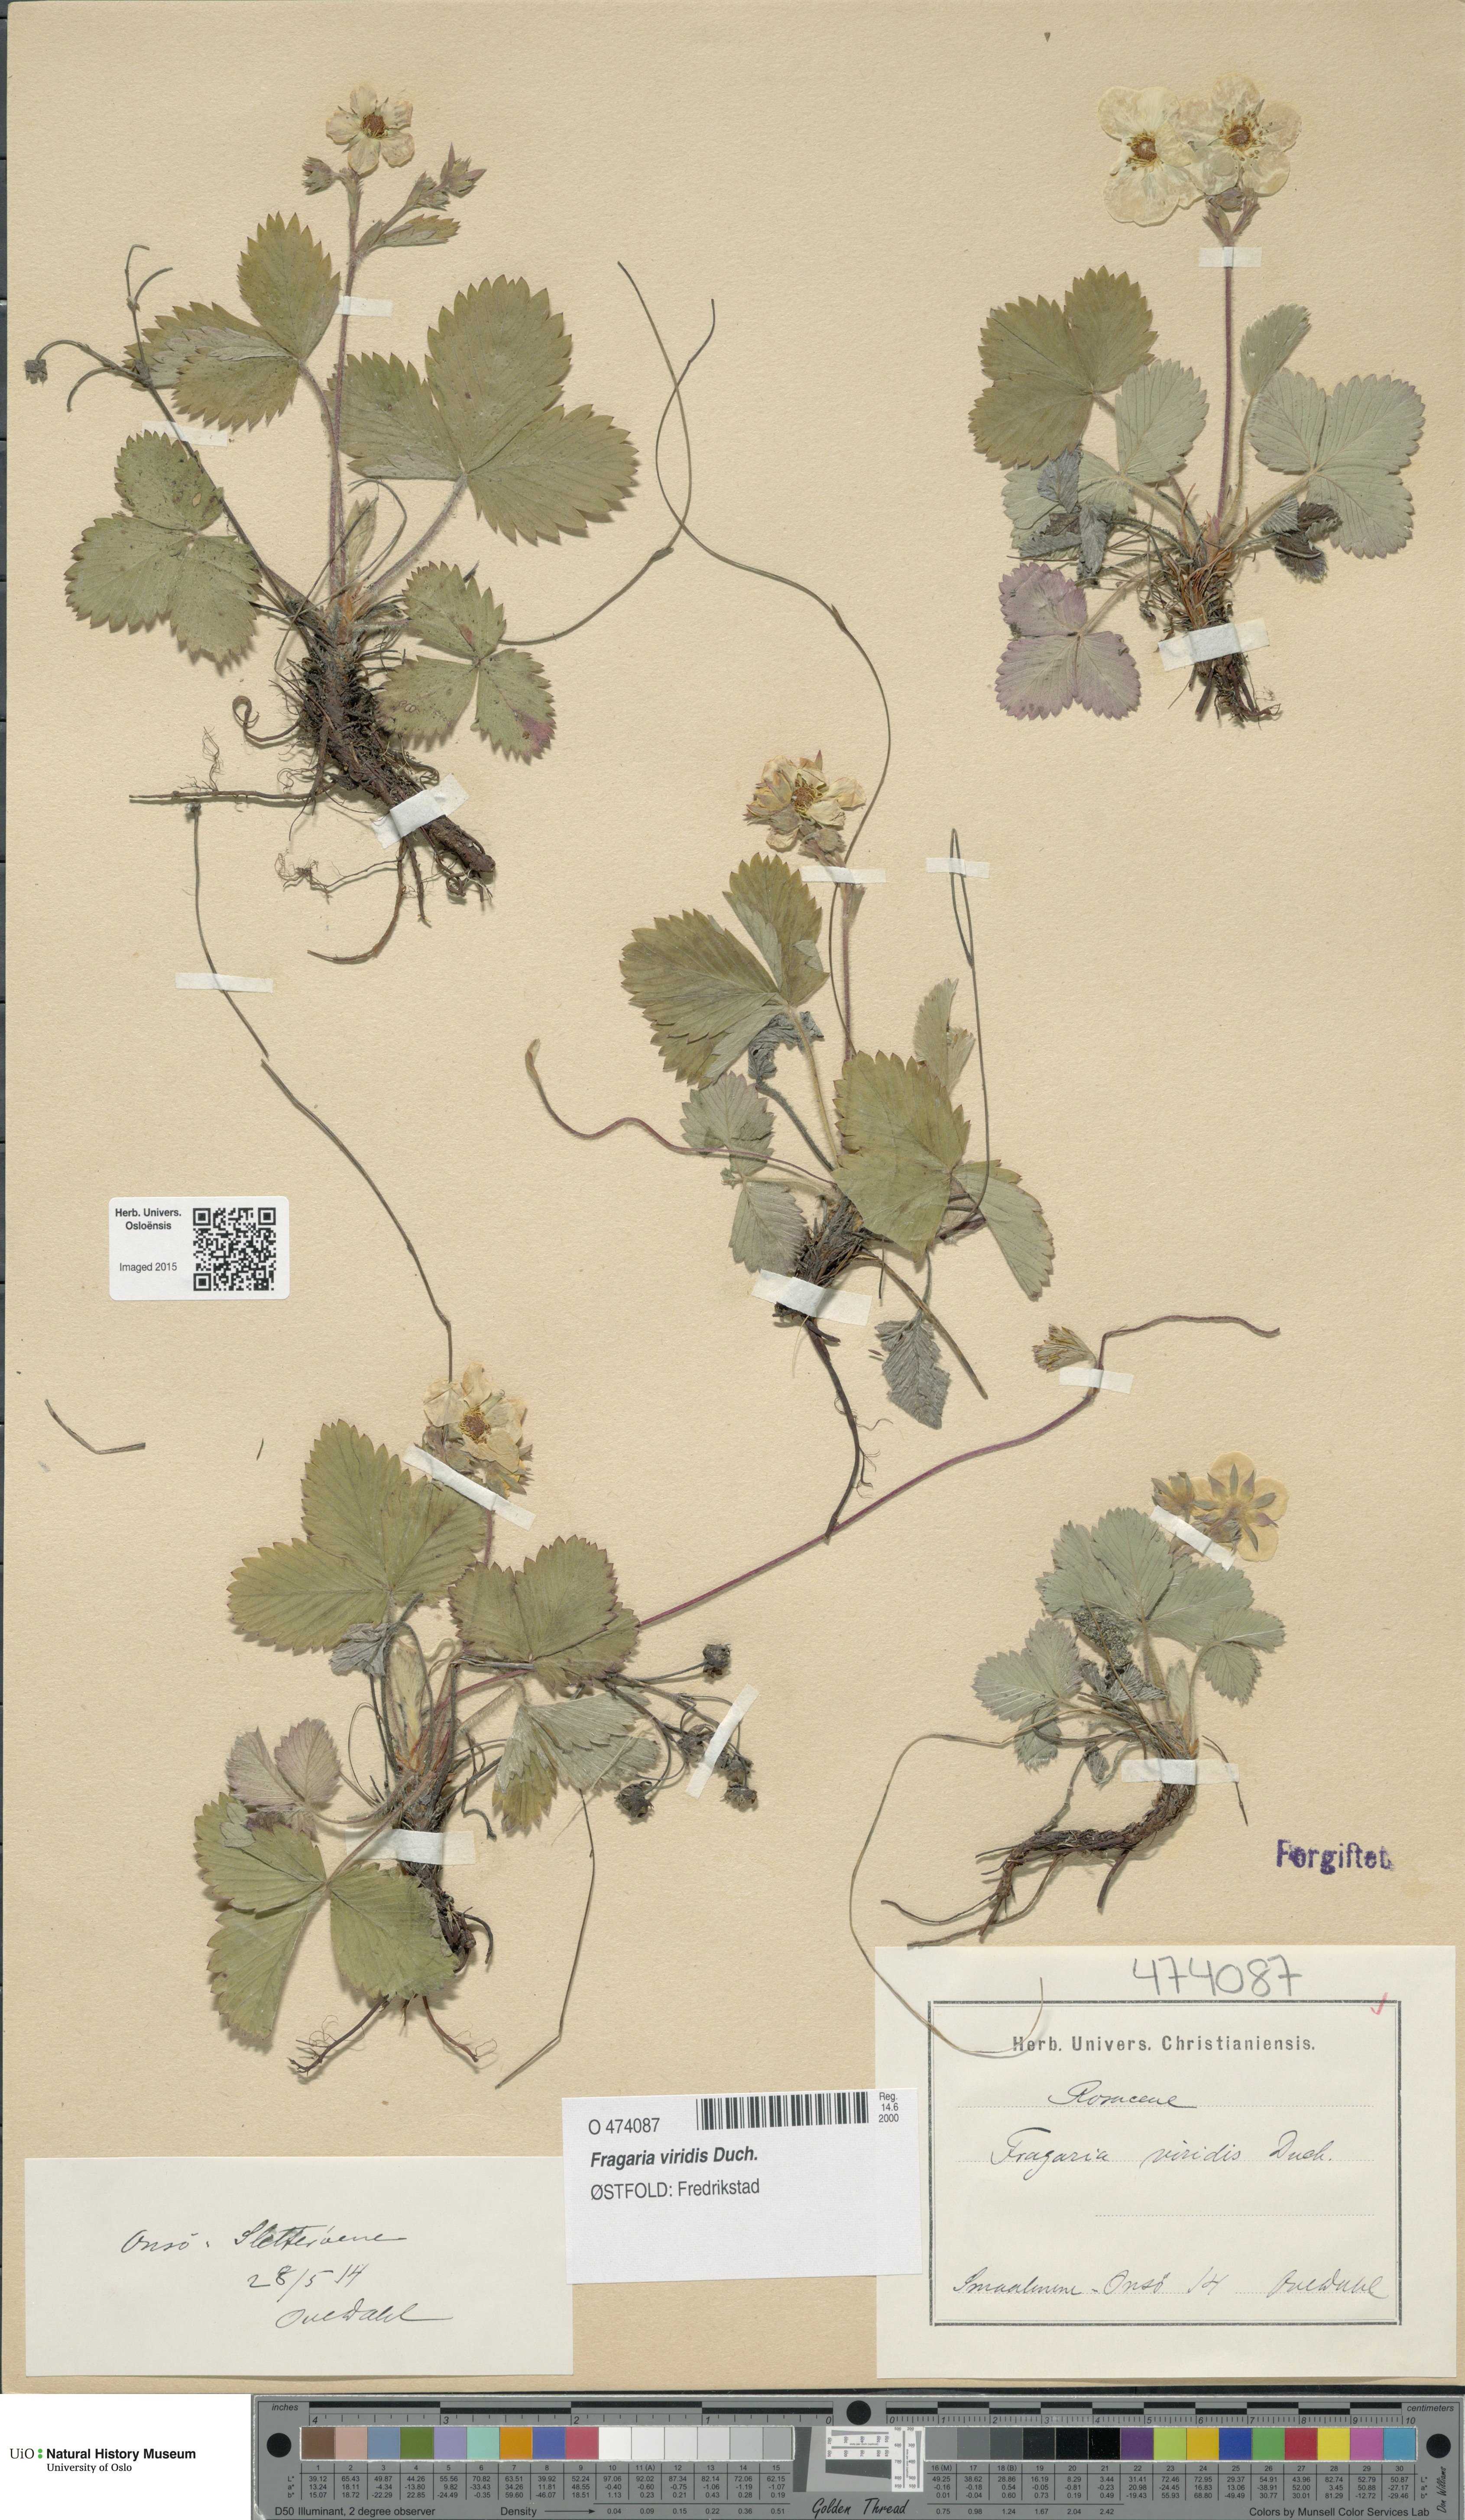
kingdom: Plantae
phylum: Tracheophyta
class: Magnoliopsida
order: Rosales
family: Rosaceae
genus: Fragaria
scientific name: Fragaria viridis
